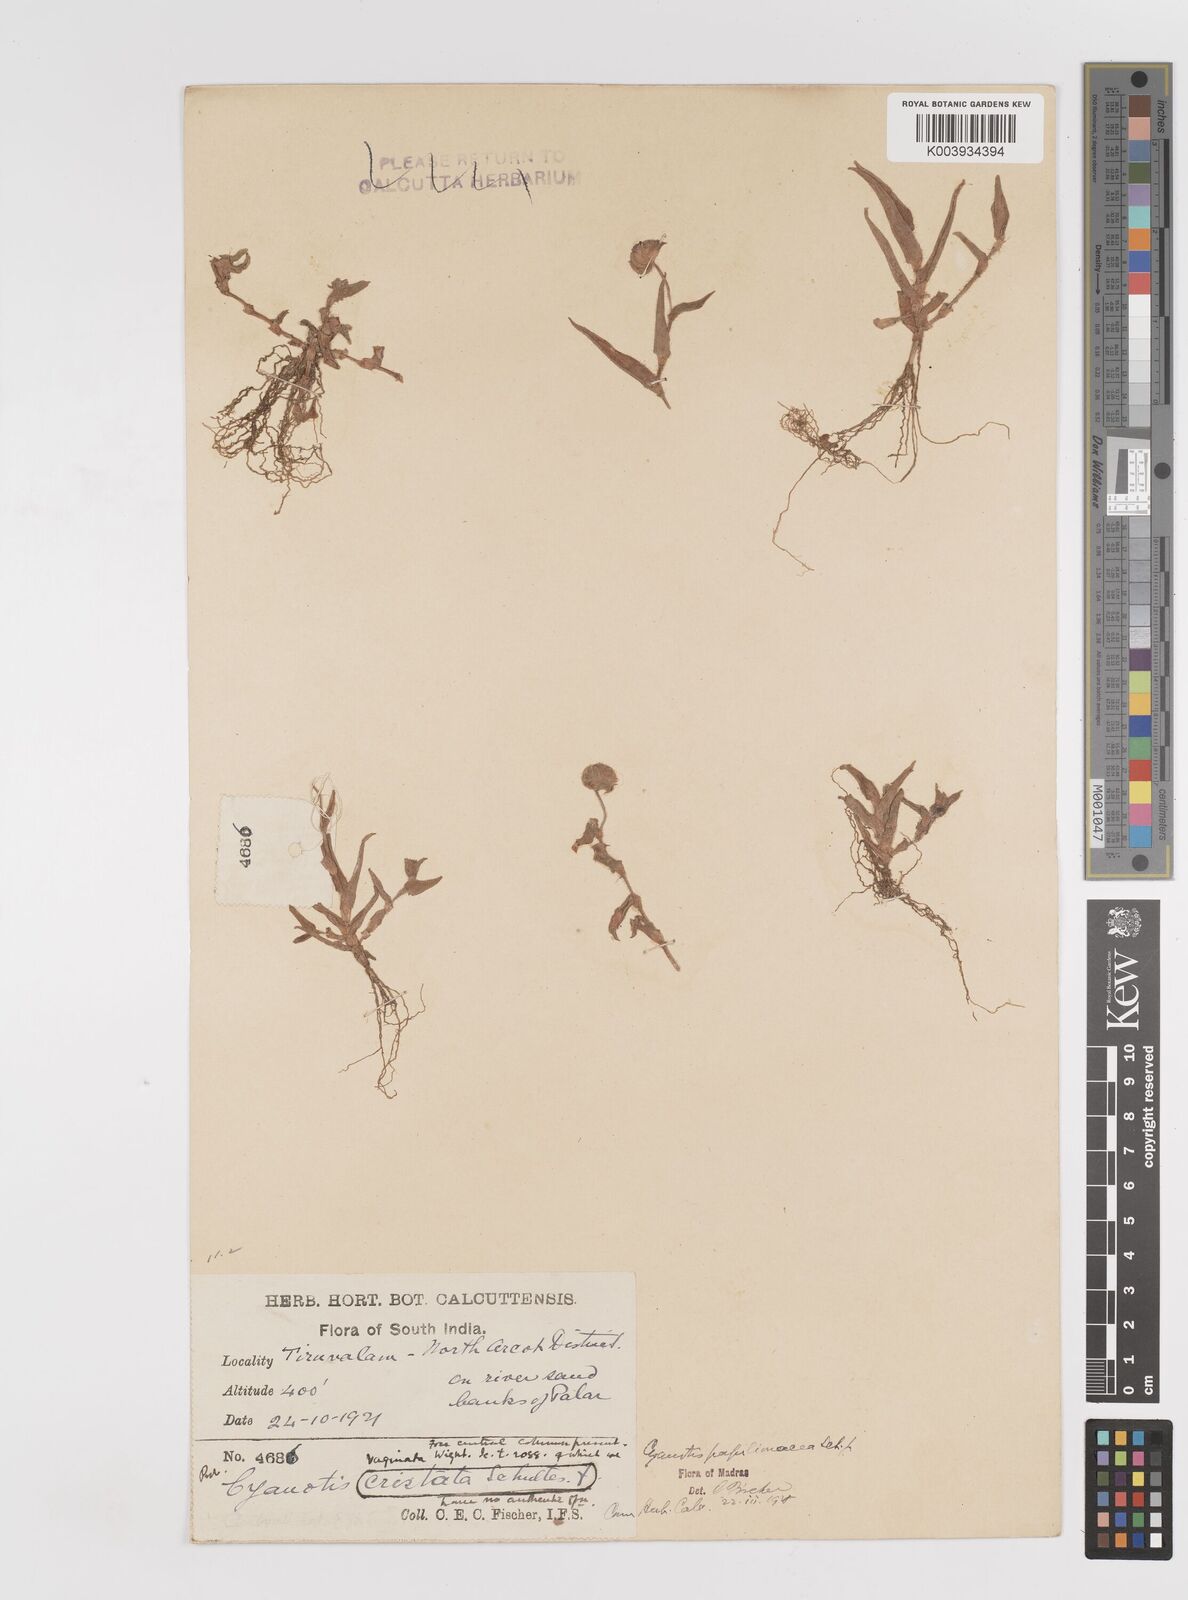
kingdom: Plantae
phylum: Tracheophyta
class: Liliopsida
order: Commelinales
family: Commelinaceae
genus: Cyanotis
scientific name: Cyanotis cristata
